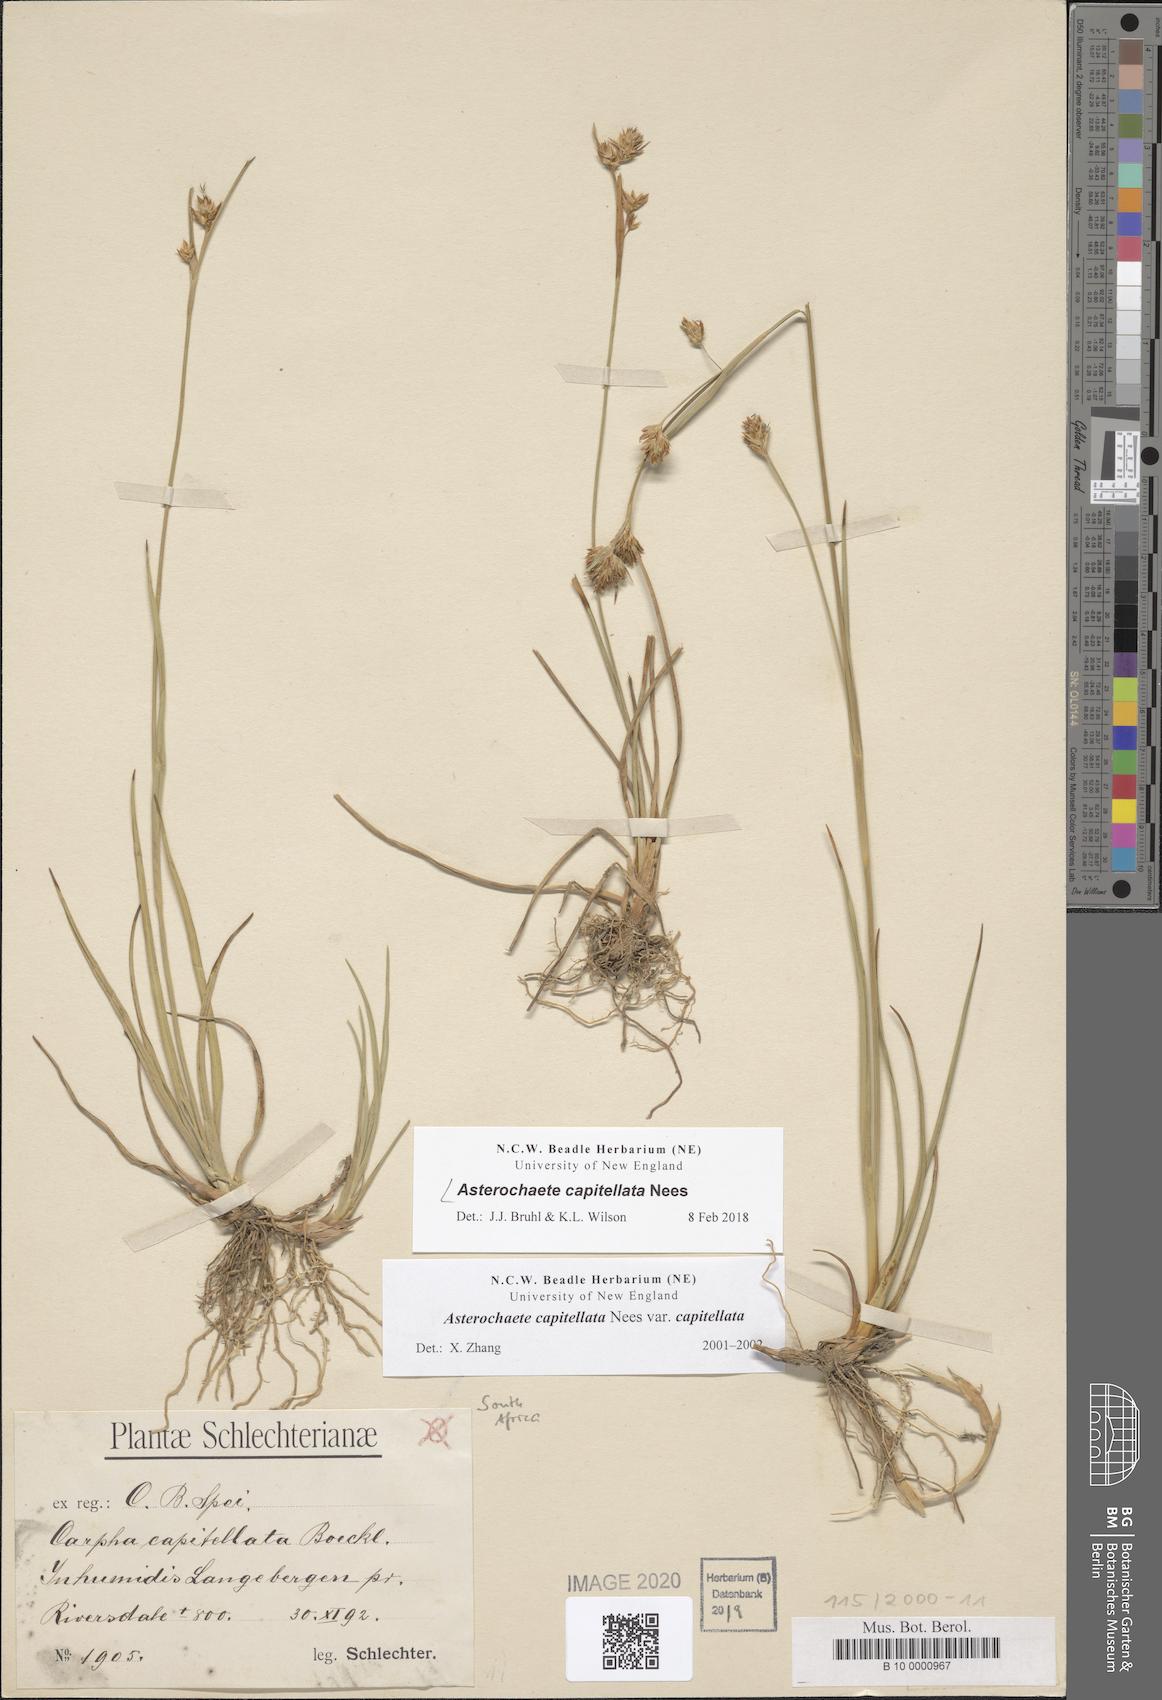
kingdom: Plantae
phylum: Tracheophyta
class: Liliopsida
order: Poales
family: Cyperaceae
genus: Carpha
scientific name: Carpha capitellata
